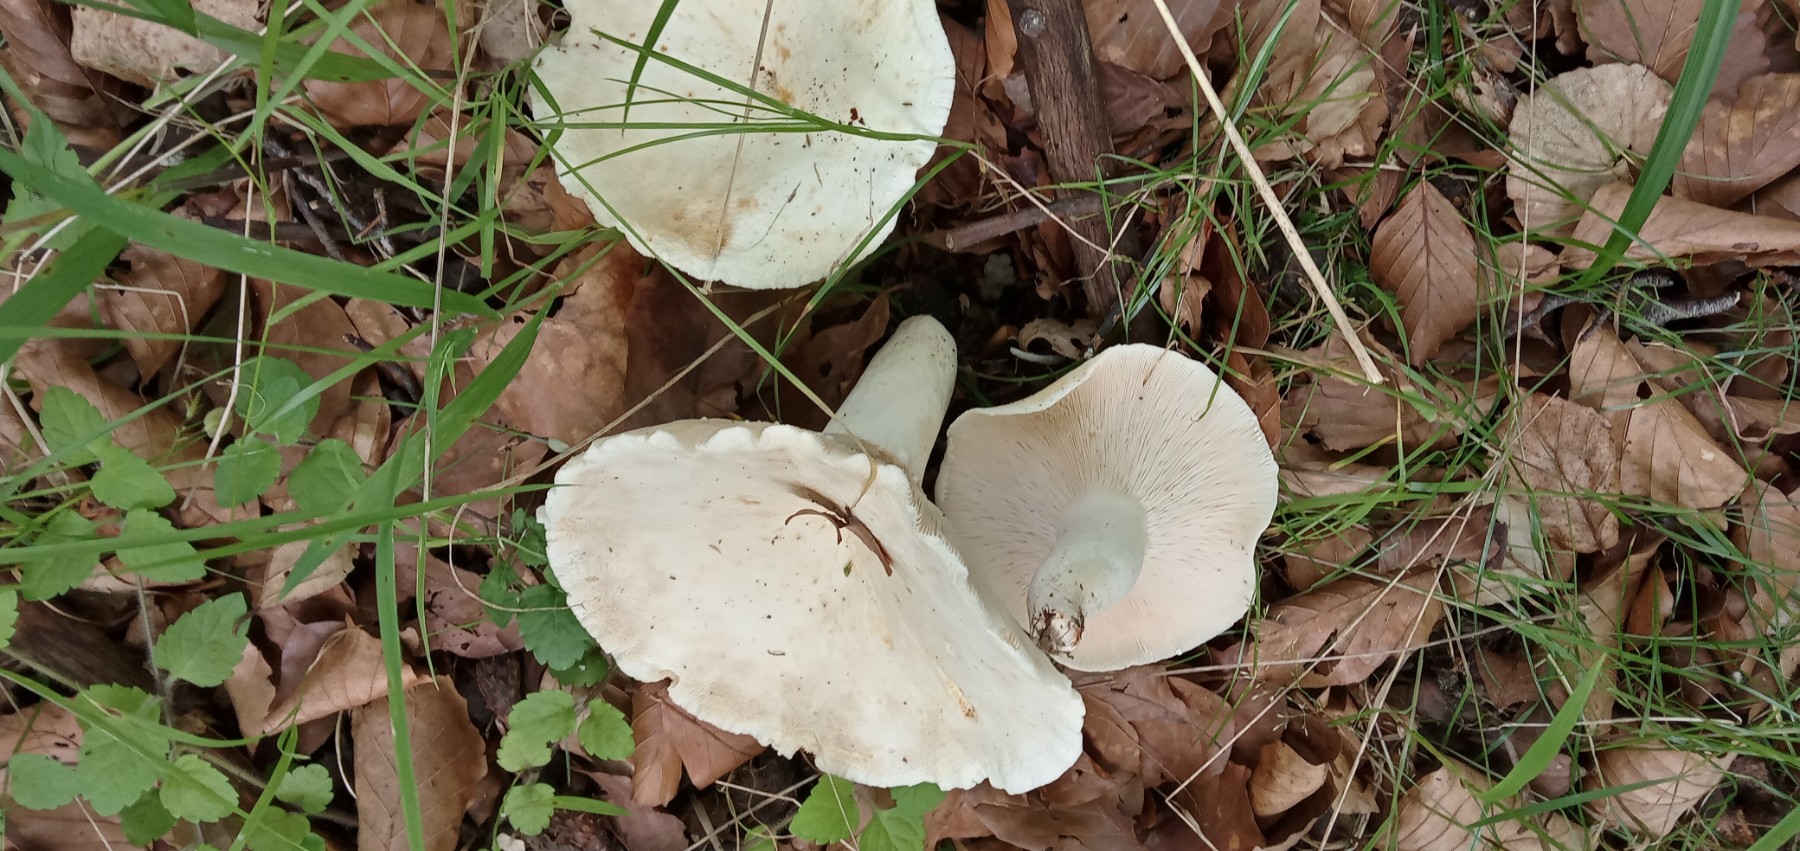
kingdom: Fungi
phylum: Basidiomycota
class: Agaricomycetes
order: Russulales
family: Russulaceae
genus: Lactifluus
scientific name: Lactifluus piperatus
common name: peber-mælkehat
